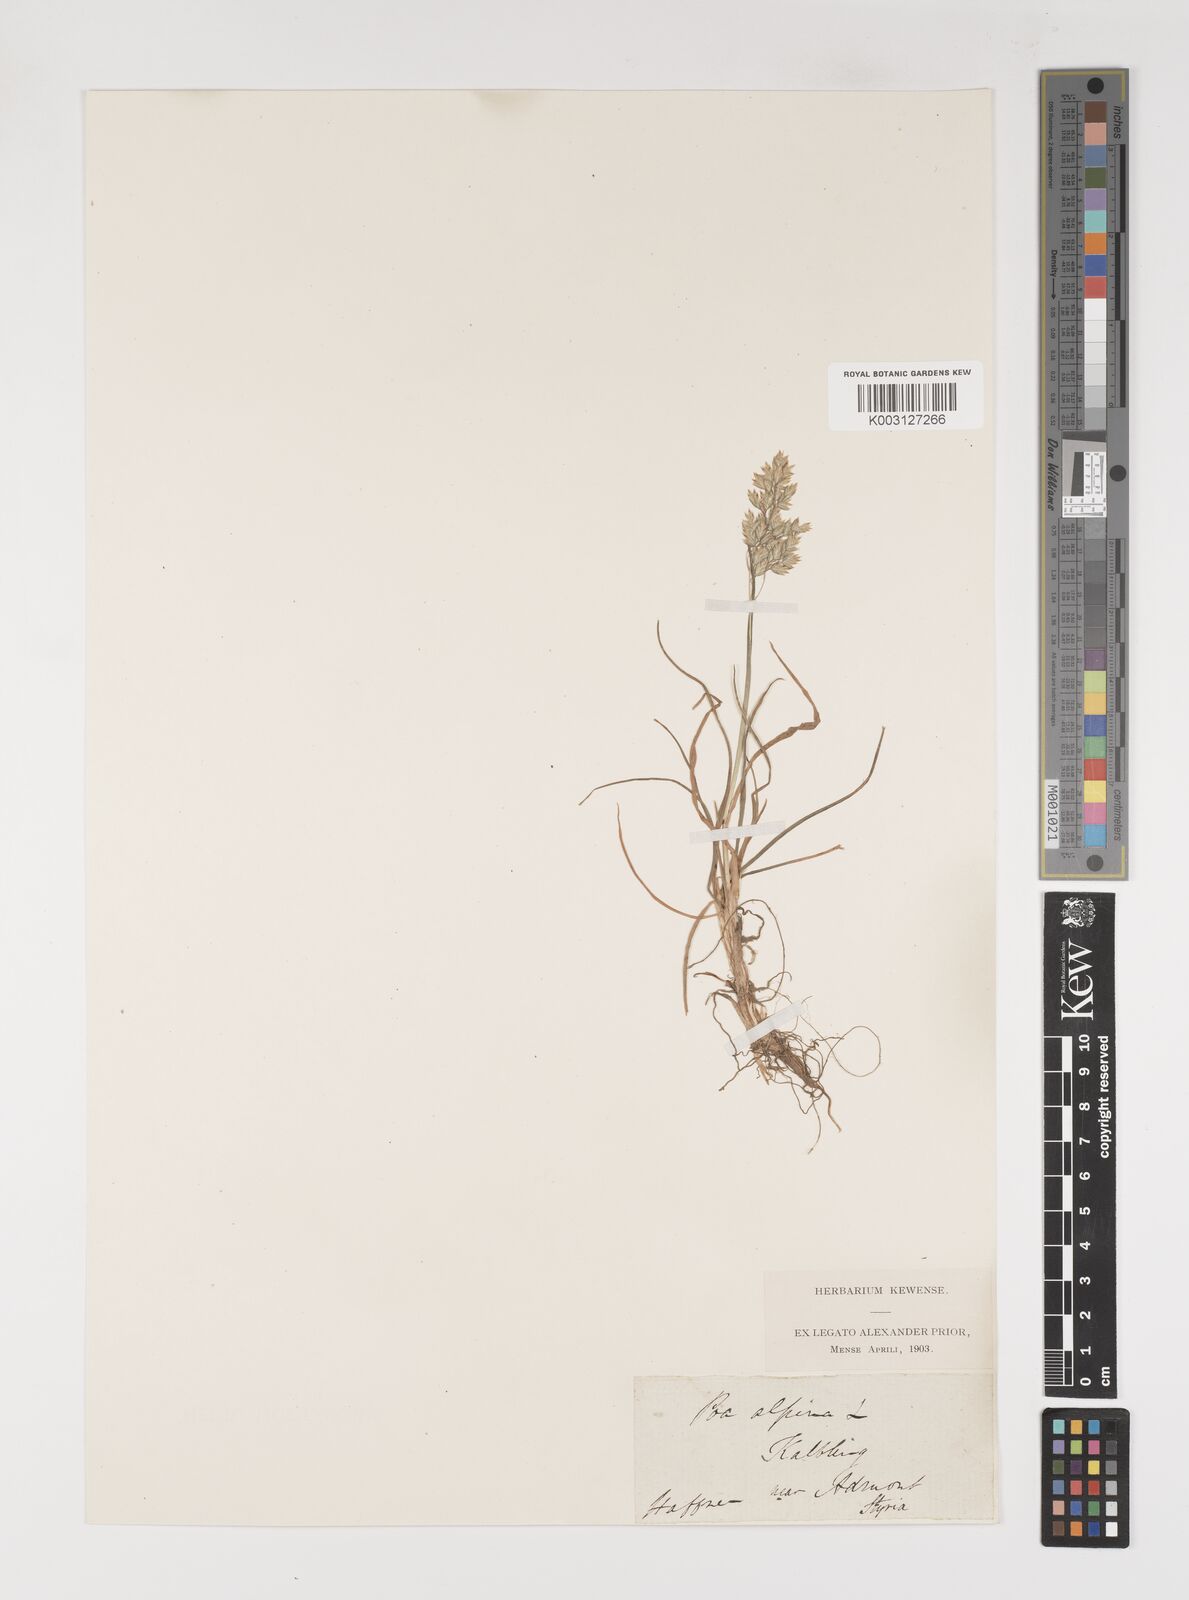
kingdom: Plantae
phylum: Tracheophyta
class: Liliopsida
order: Poales
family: Poaceae
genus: Poa
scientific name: Poa alpina
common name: Alpine bluegrass
